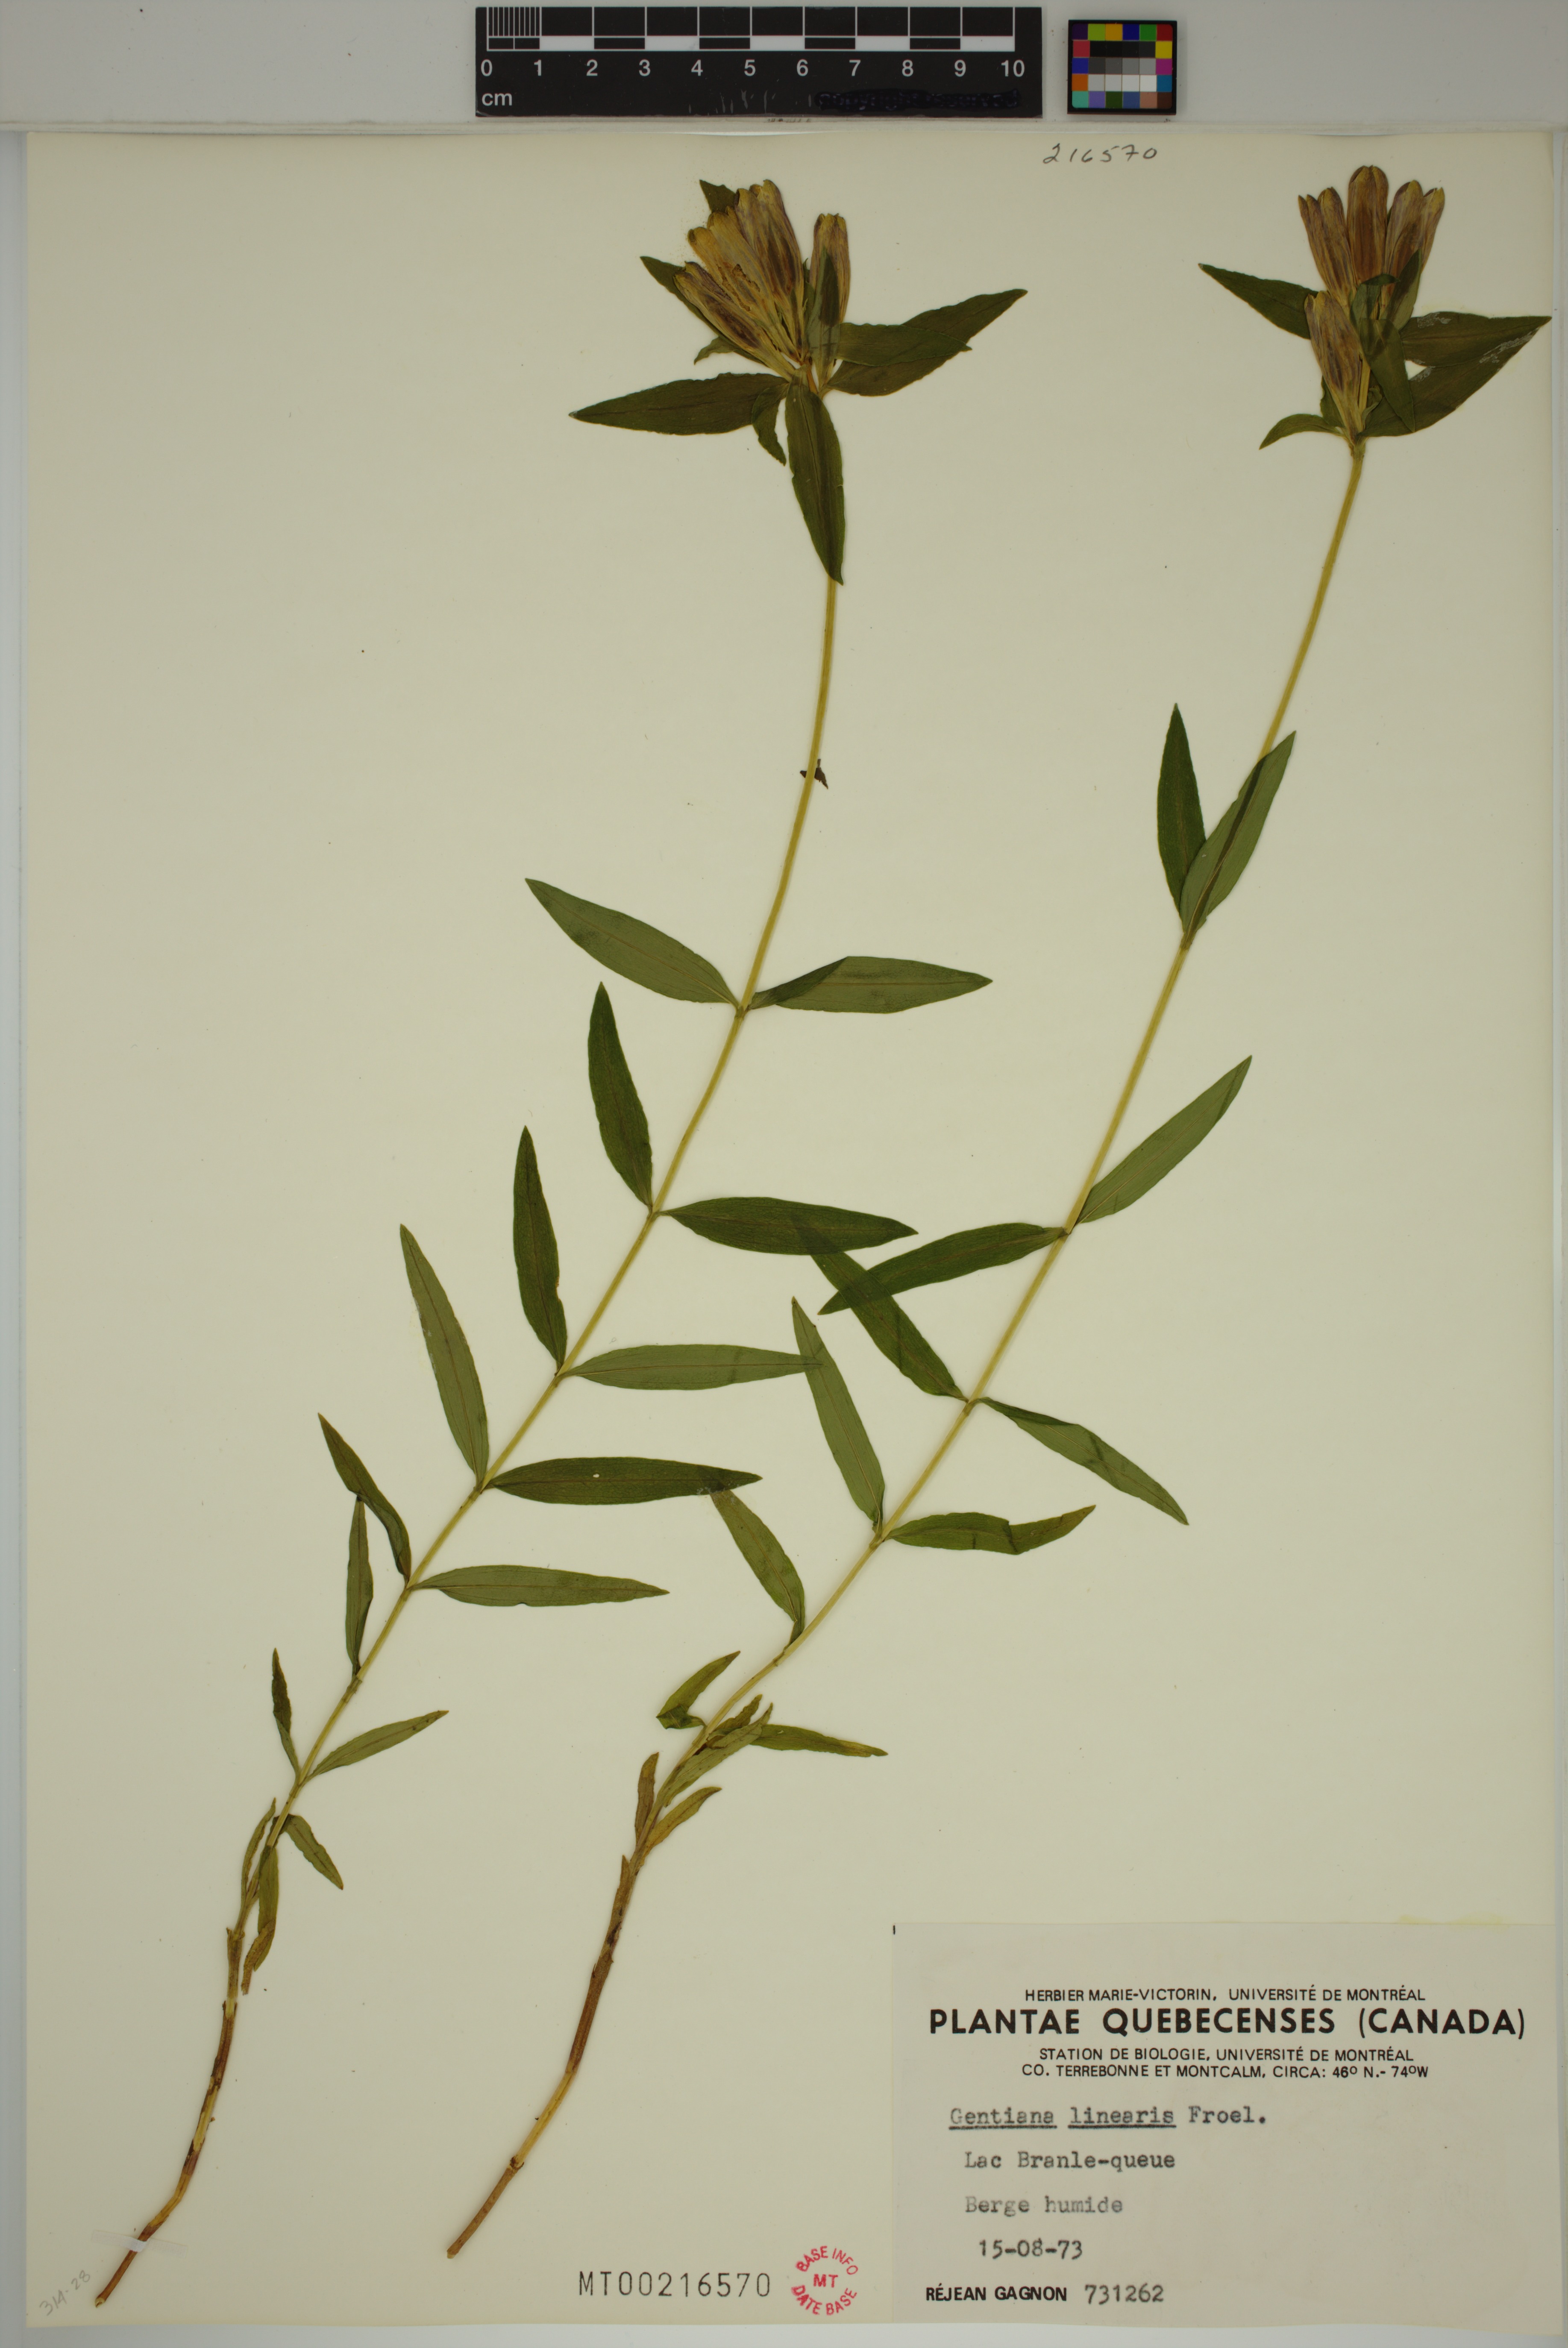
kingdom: Plantae
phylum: Tracheophyta
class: Magnoliopsida
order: Gentianales
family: Gentianaceae
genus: Gentiana
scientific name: Gentiana linearis
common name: Bastard gentian
